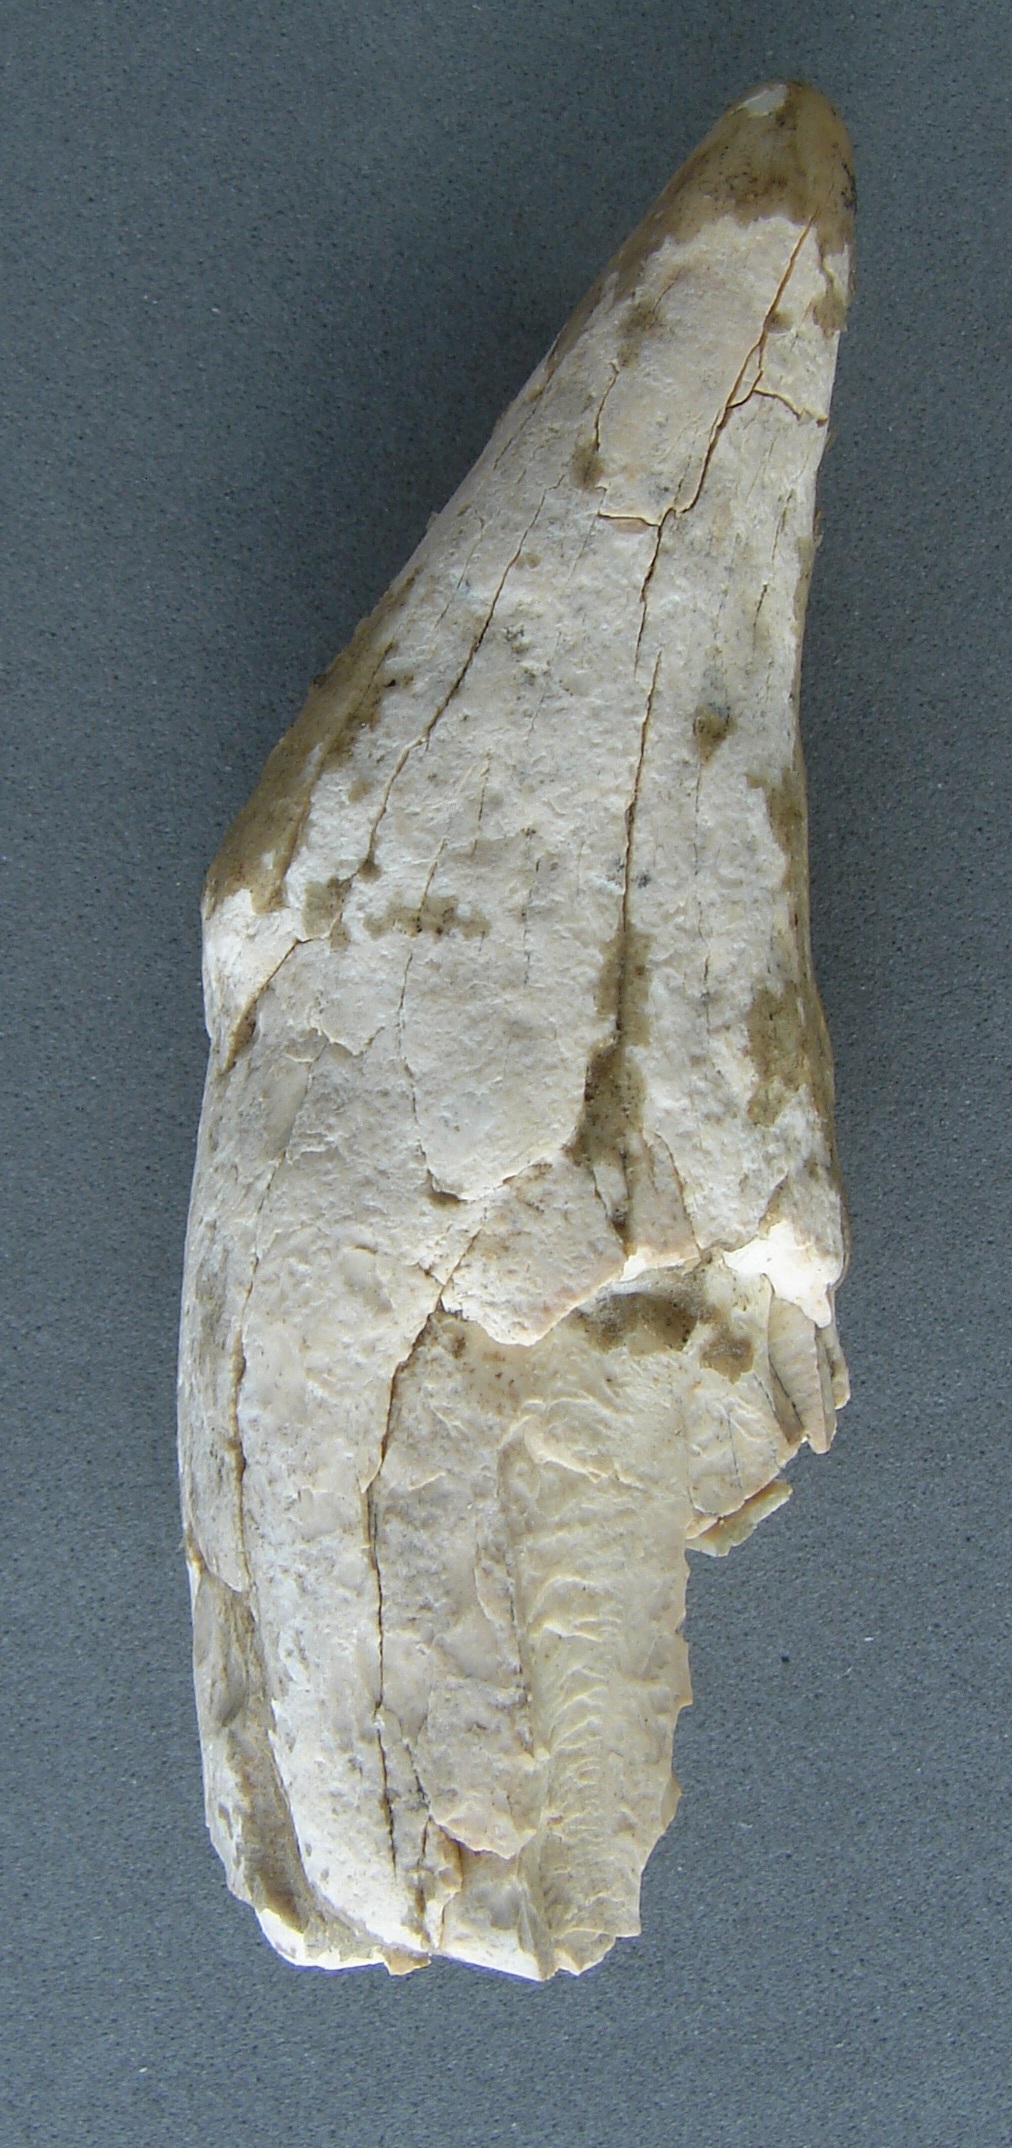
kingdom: Animalia
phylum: Chordata
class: Mammalia
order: Carnivora
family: Ursidae
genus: Ursus
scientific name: Ursus
